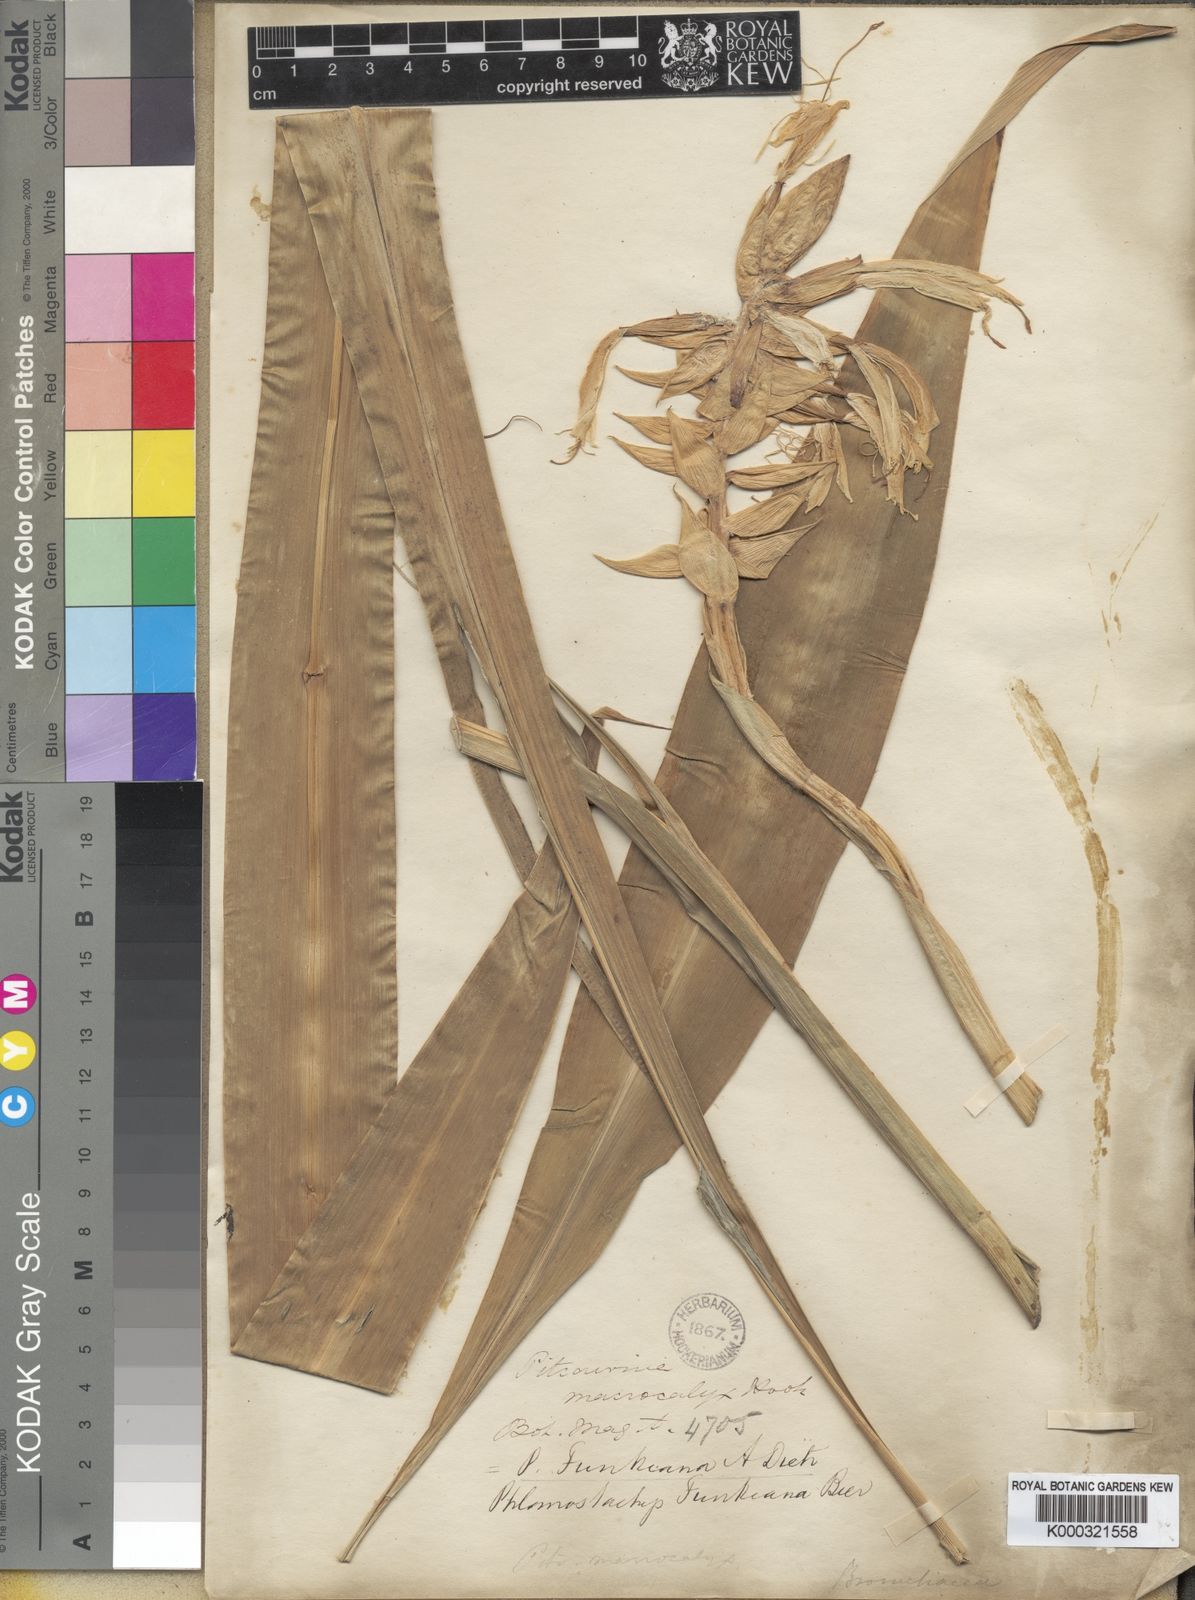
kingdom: Plantae
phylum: Tracheophyta
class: Liliopsida
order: Poales
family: Bromeliaceae
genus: Pitcairnia
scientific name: Pitcairnia maidifolia
